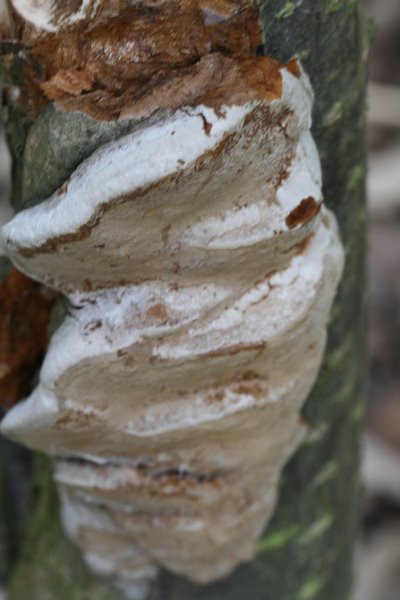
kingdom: Fungi
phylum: Basidiomycota
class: Agaricomycetes
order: Hymenochaetales
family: Hymenochaetaceae
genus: Phellinus
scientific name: Phellinus pomaceus
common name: blomme-ildporesvamp
